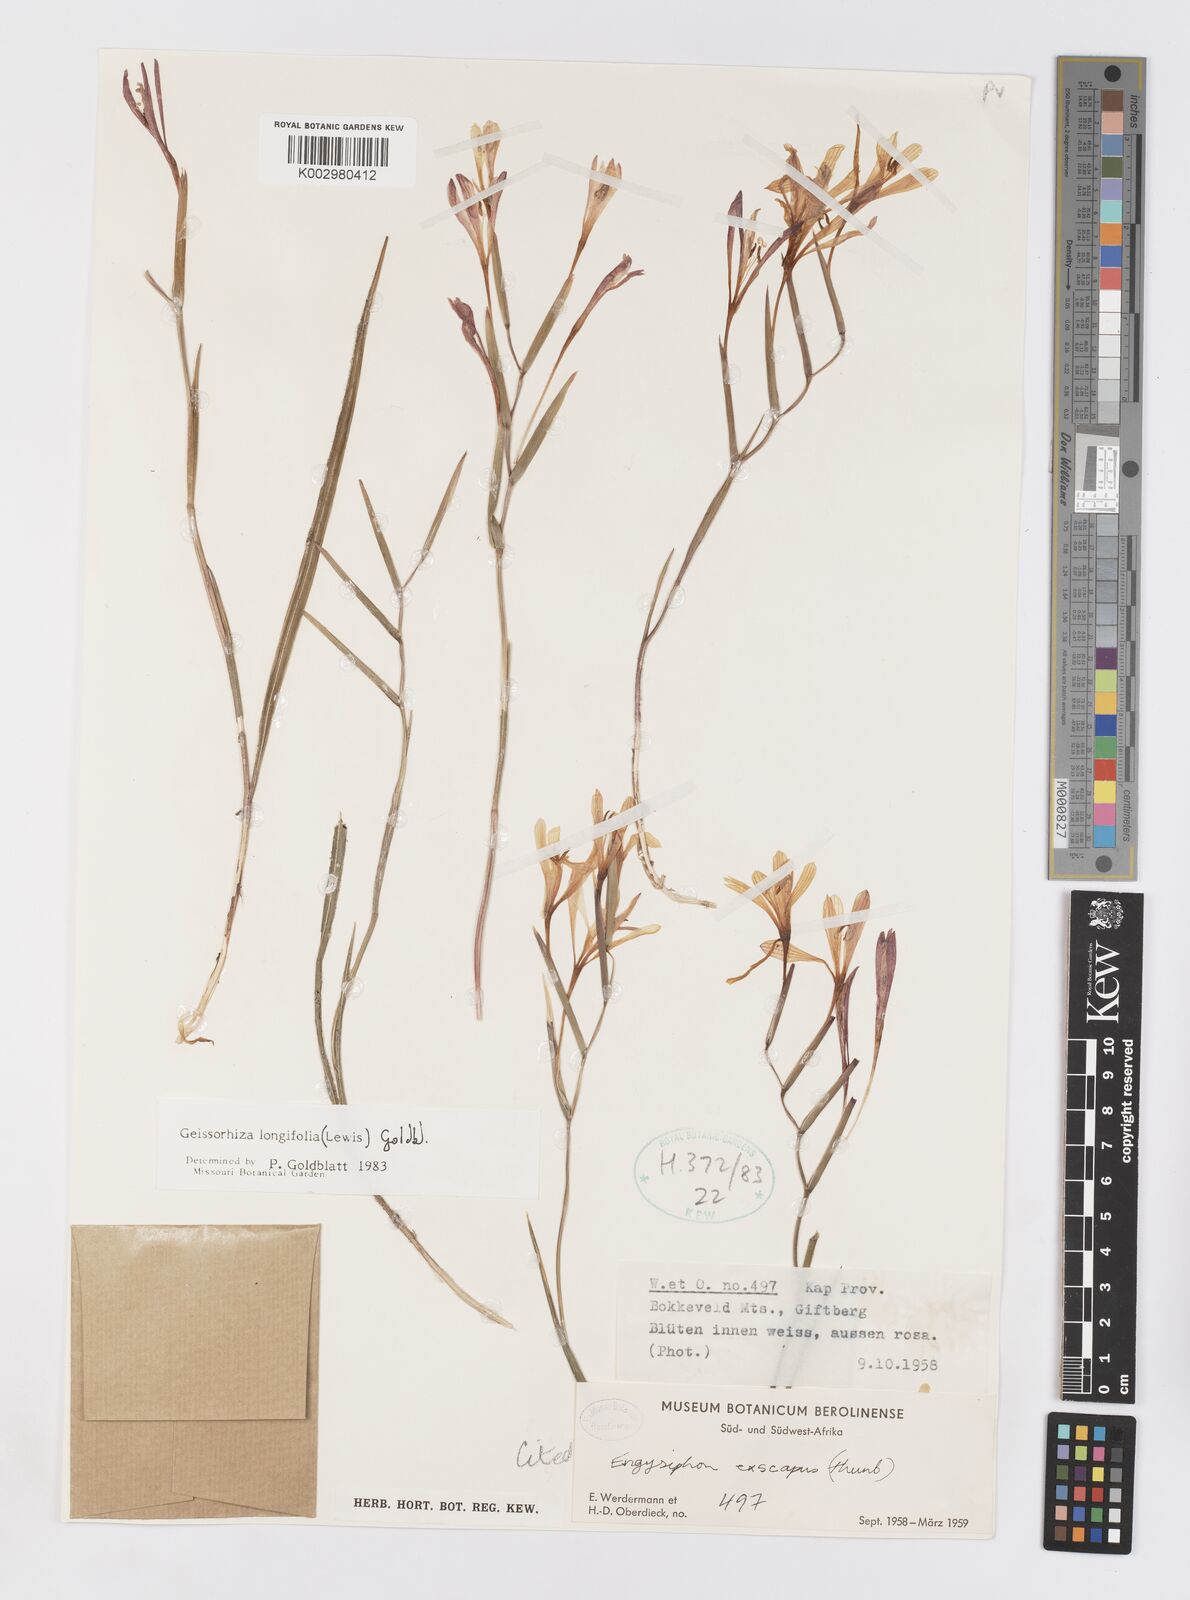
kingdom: Plantae
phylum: Tracheophyta
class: Liliopsida
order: Asparagales
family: Iridaceae
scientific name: Iridaceae
